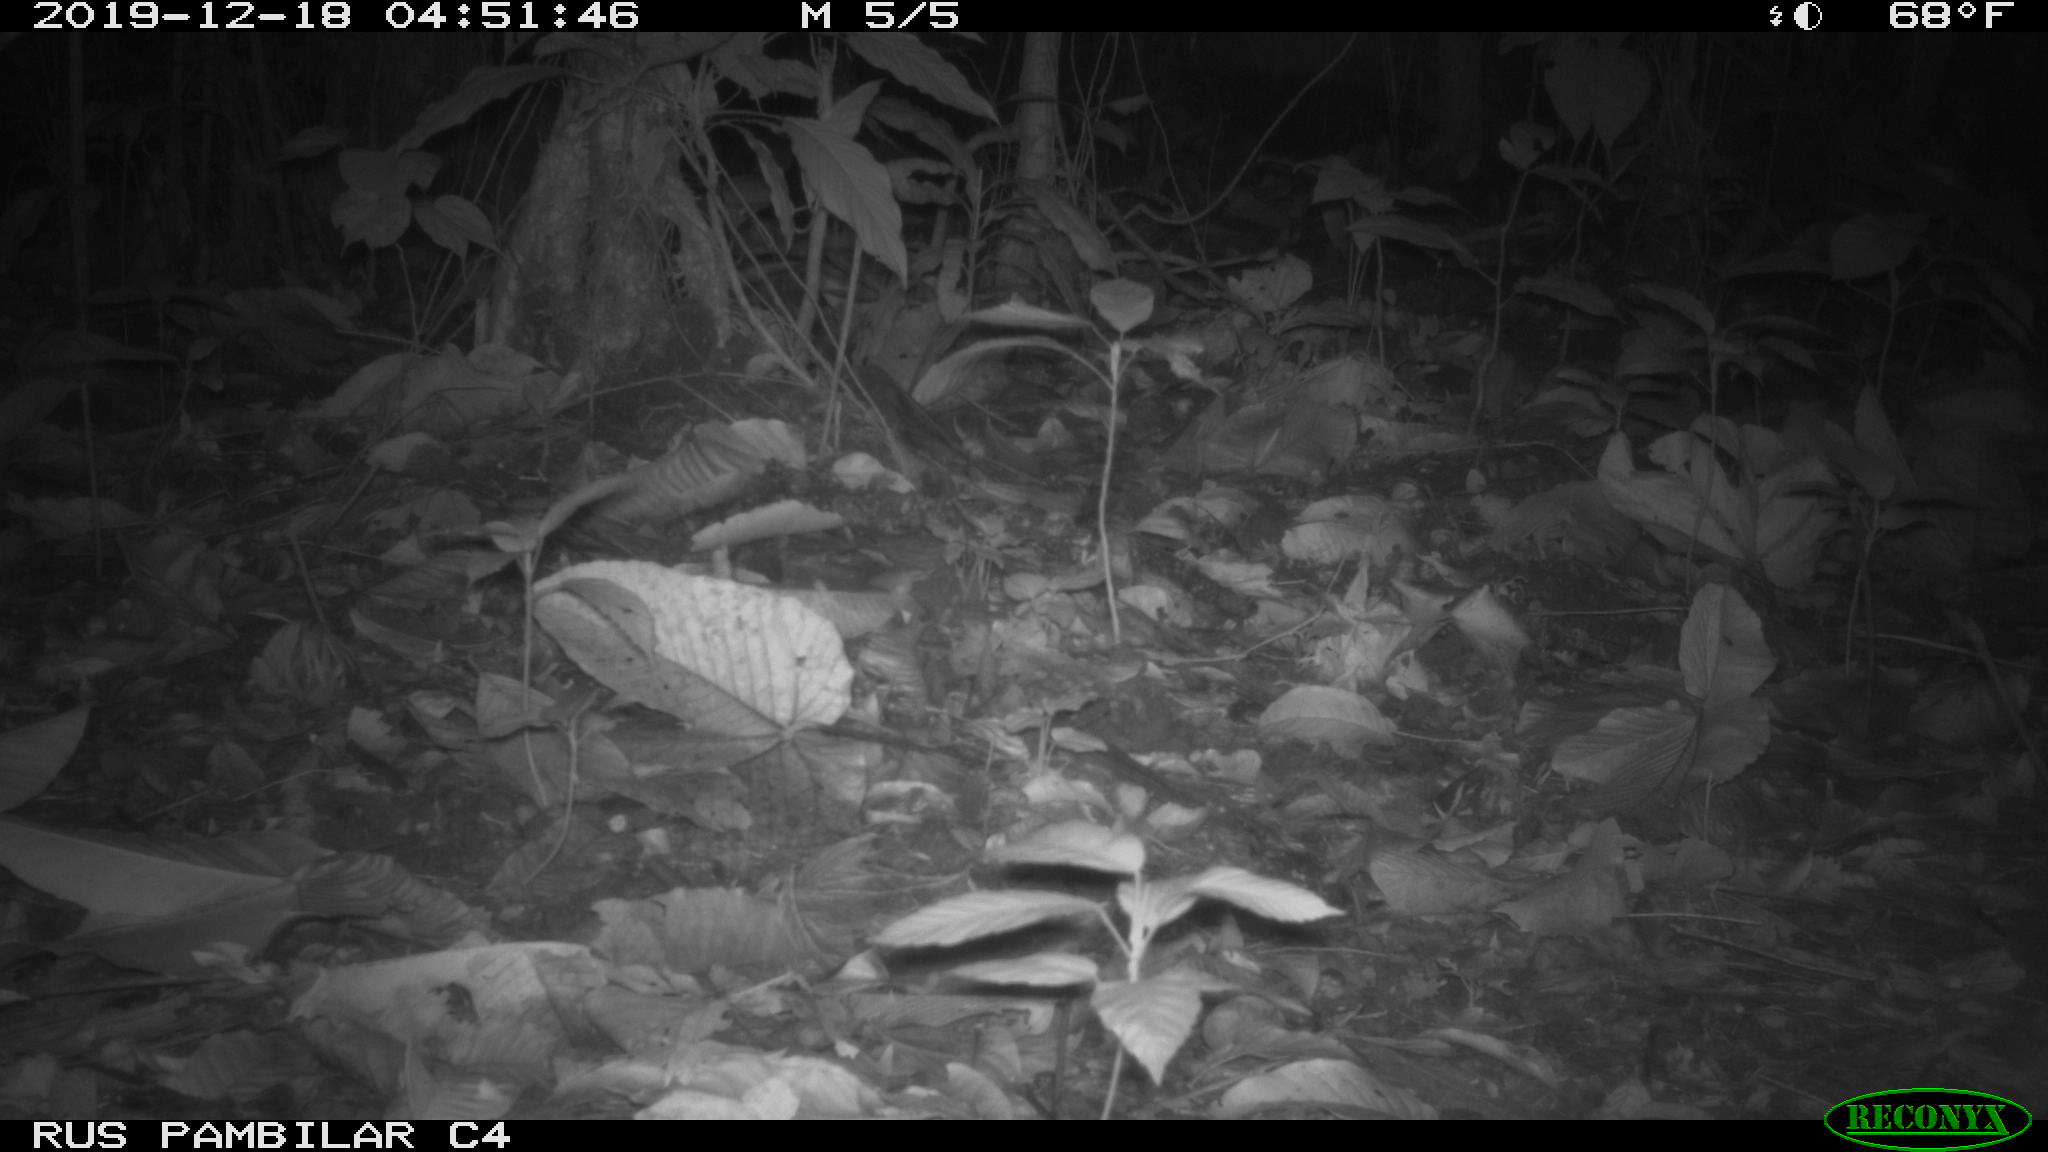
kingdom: Animalia
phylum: Chordata
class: Mammalia
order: Rodentia
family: Dasyproctidae
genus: Dasyprocta
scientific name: Dasyprocta punctata
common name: Central american agouti
